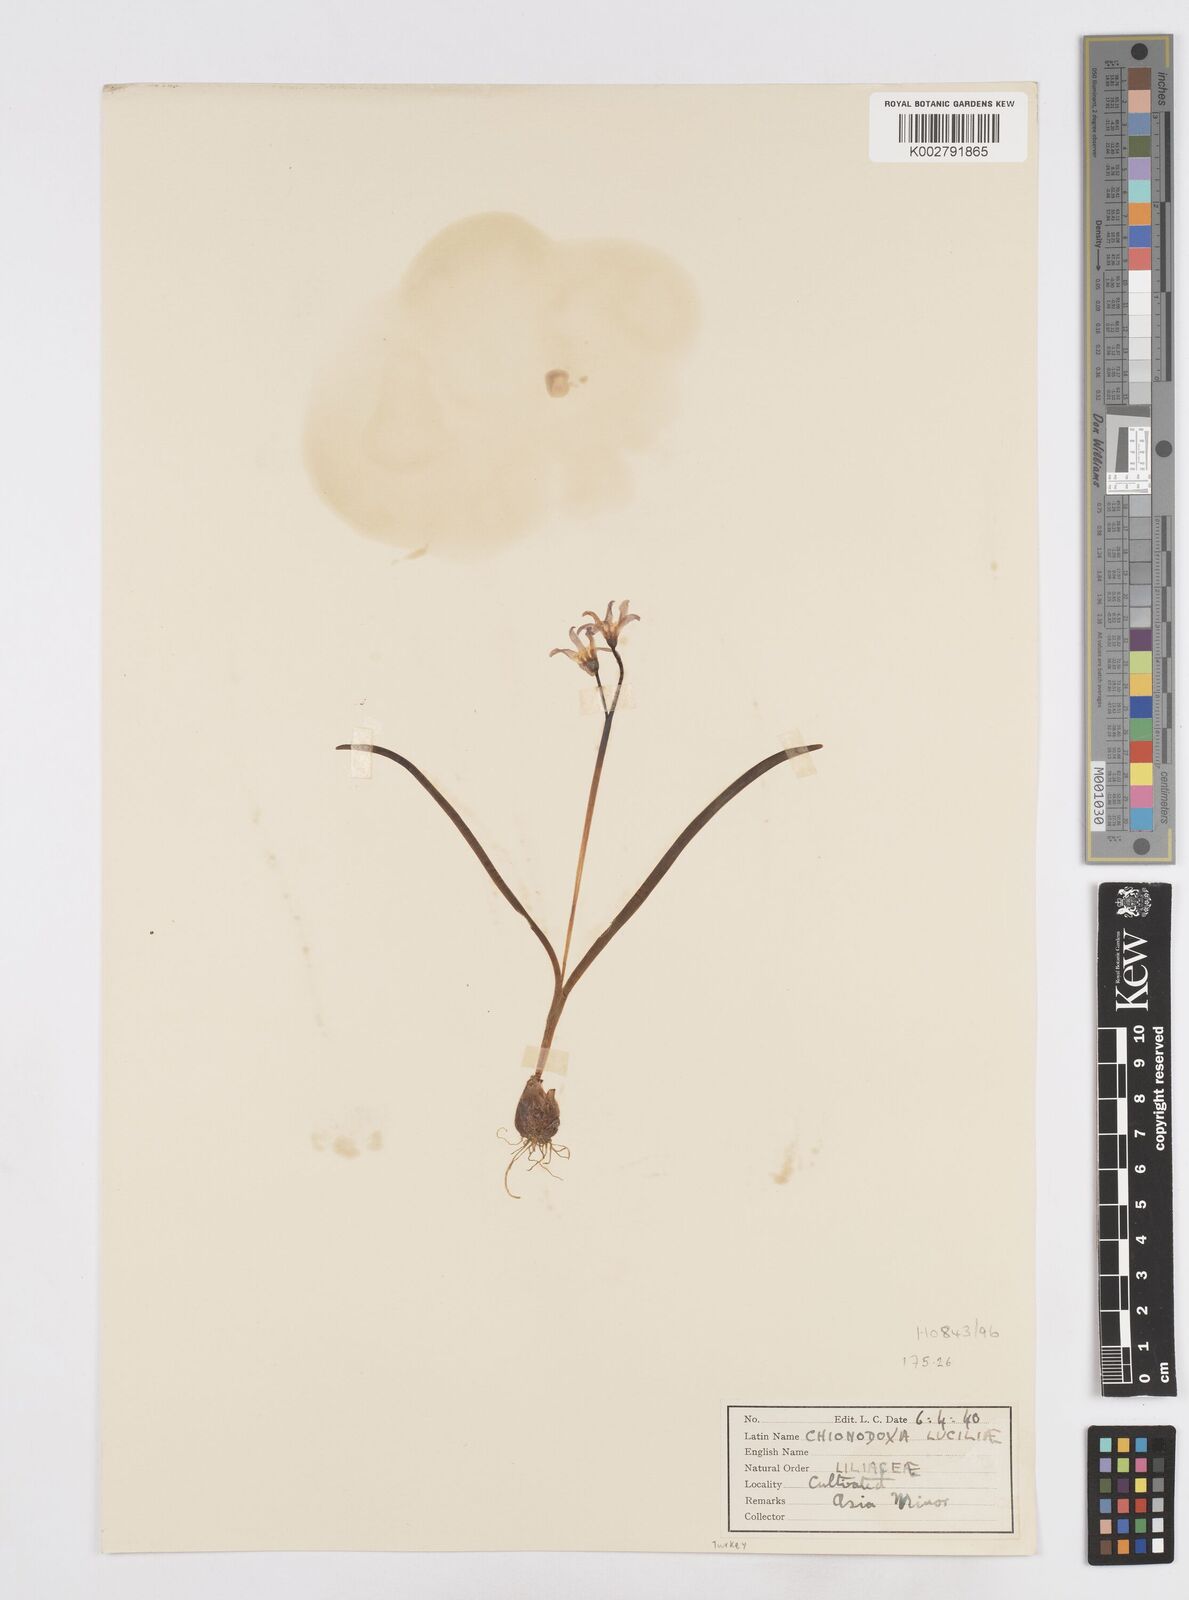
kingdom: Plantae
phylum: Tracheophyta
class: Liliopsida
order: Asparagales
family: Asparagaceae
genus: Scilla
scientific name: Scilla luciliae
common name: Boissier's glory-of-the-snow
